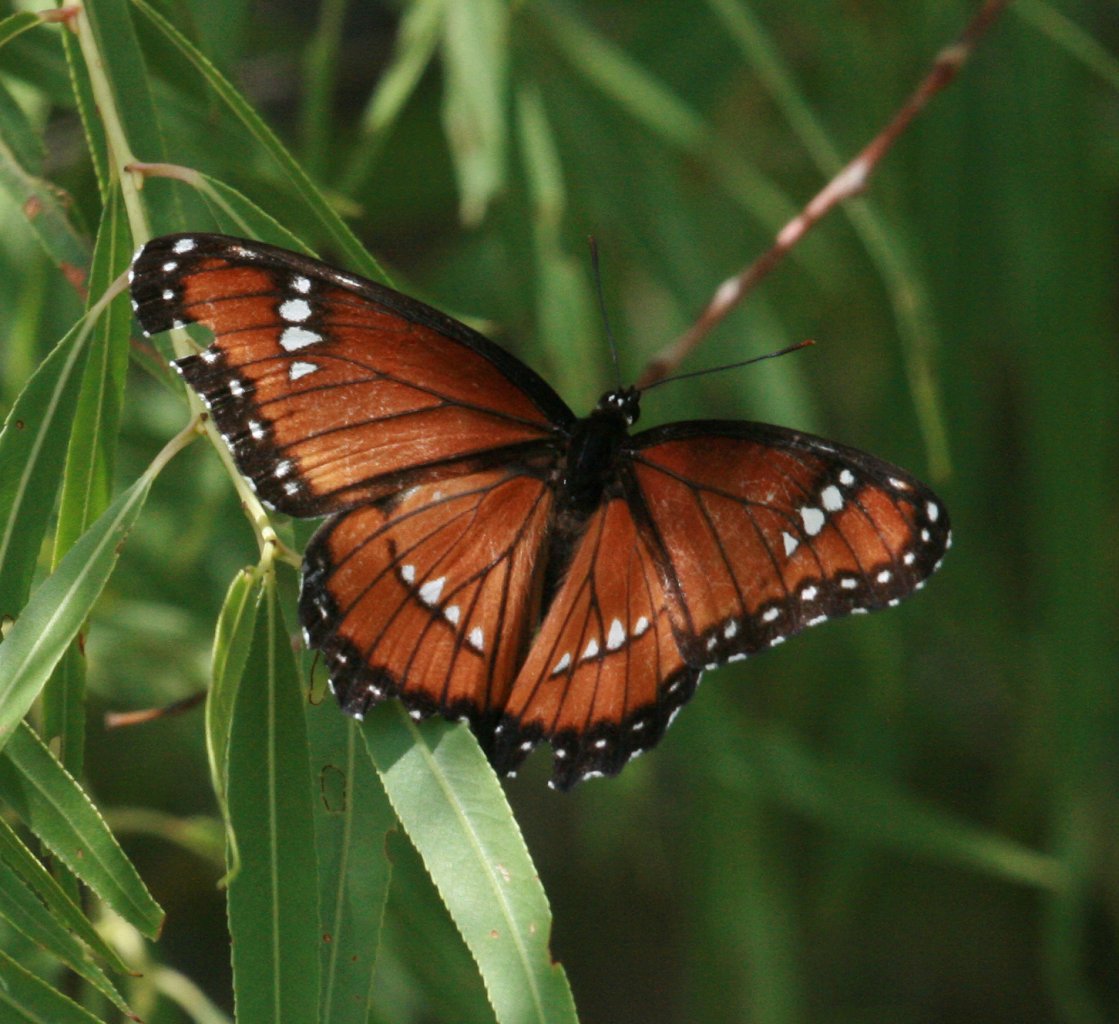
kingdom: Animalia
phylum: Arthropoda
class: Insecta
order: Lepidoptera
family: Nymphalidae
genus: Limenitis
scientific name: Limenitis archippus
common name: Viceroy
